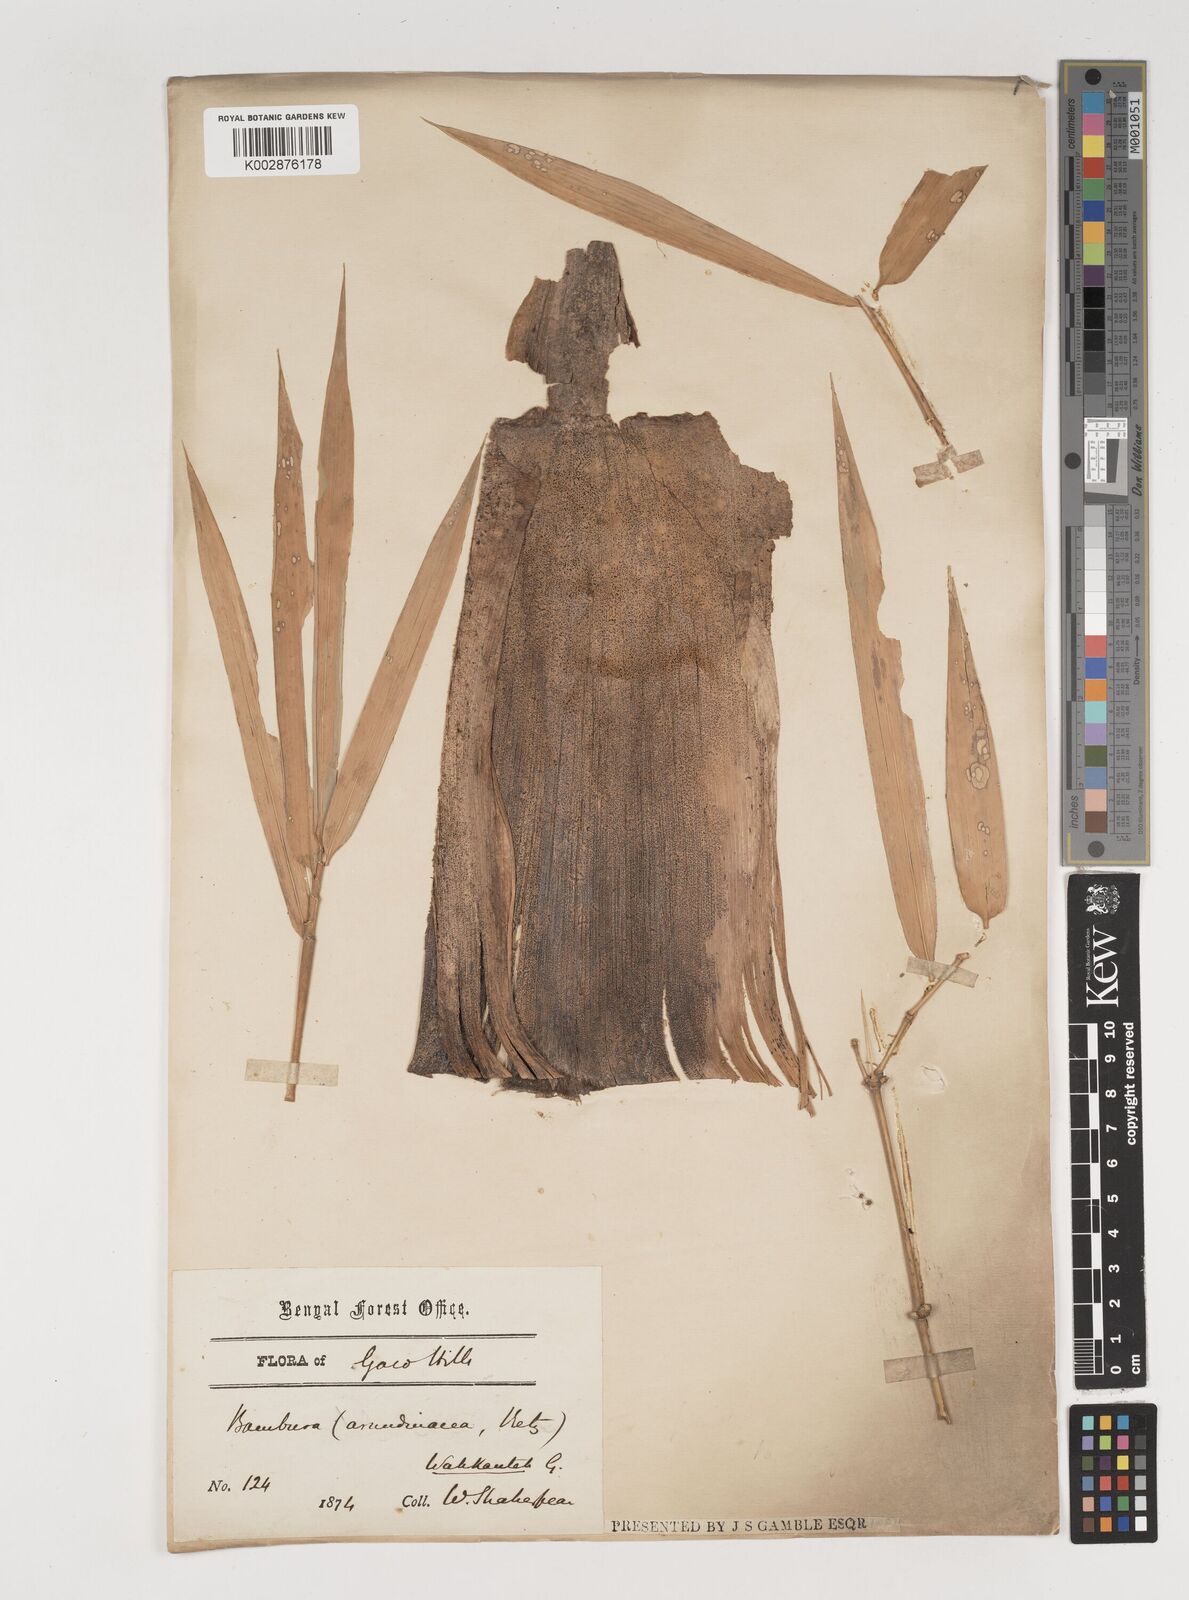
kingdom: Plantae
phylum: Tracheophyta
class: Liliopsida
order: Poales
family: Poaceae
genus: Bambusa
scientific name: Bambusa bambos
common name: Indian thorny bamboo
